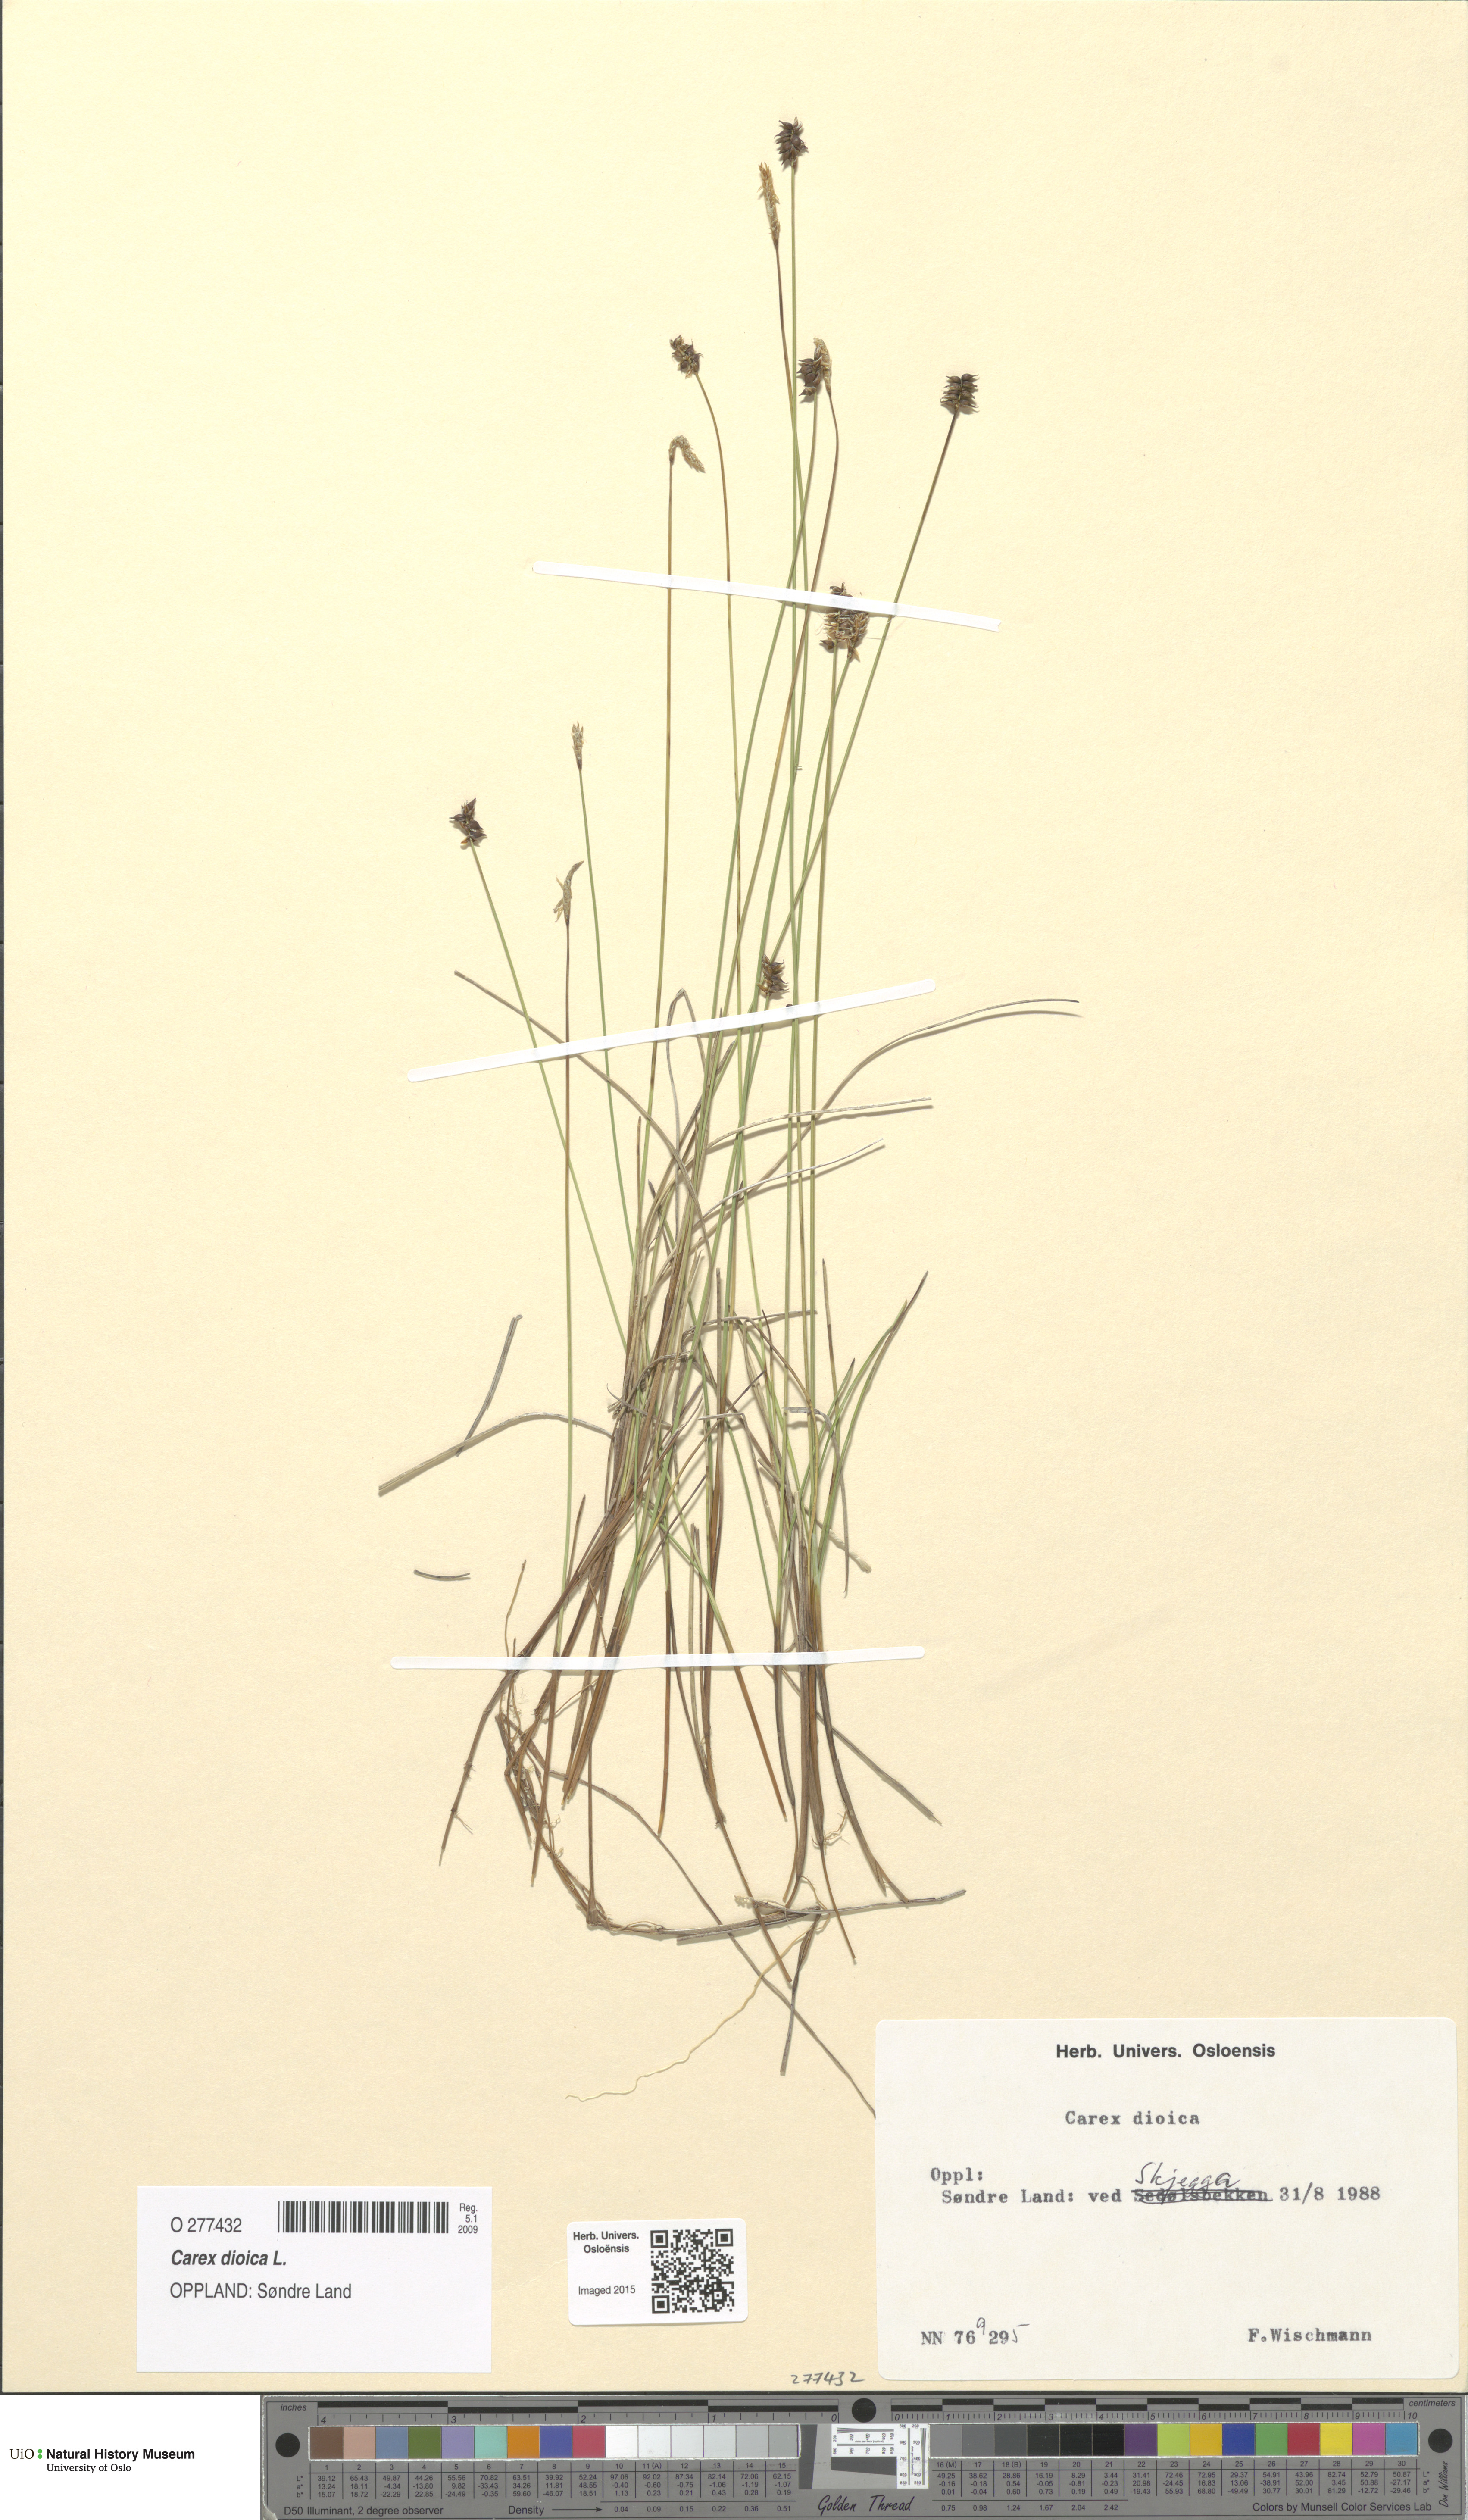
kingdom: Plantae
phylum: Tracheophyta
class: Liliopsida
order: Poales
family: Cyperaceae
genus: Carex
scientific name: Carex dioica
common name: Dioecious sedge
